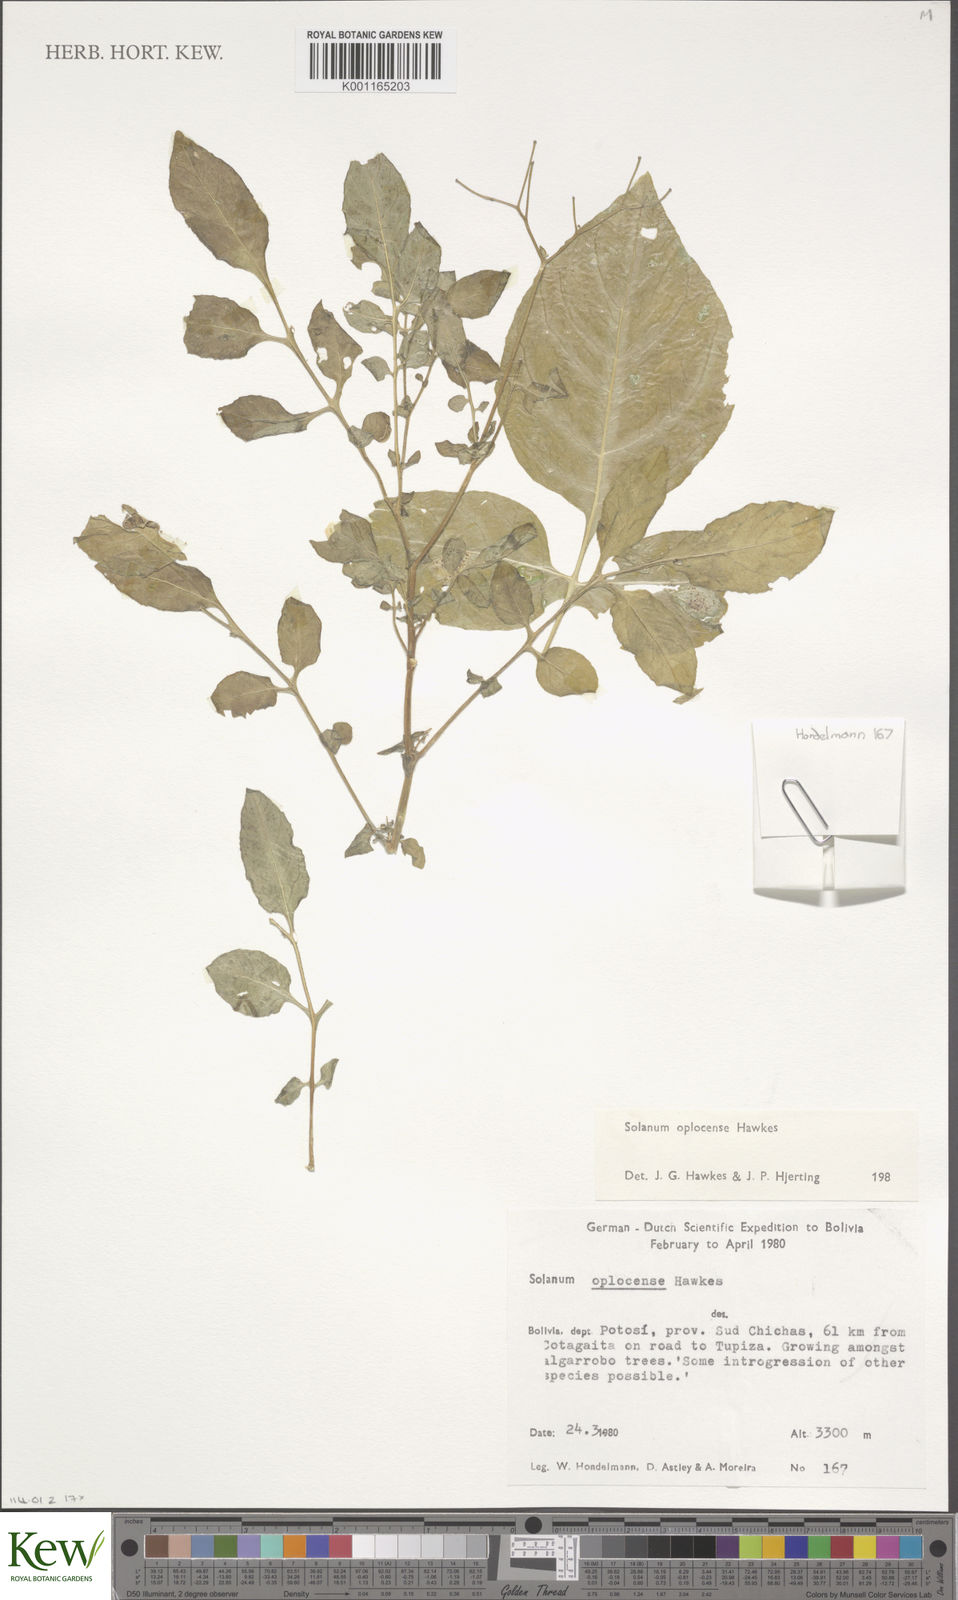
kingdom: Plantae
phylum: Tracheophyta
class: Magnoliopsida
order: Solanales
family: Solanaceae
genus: Solanum
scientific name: Solanum brevicaule
